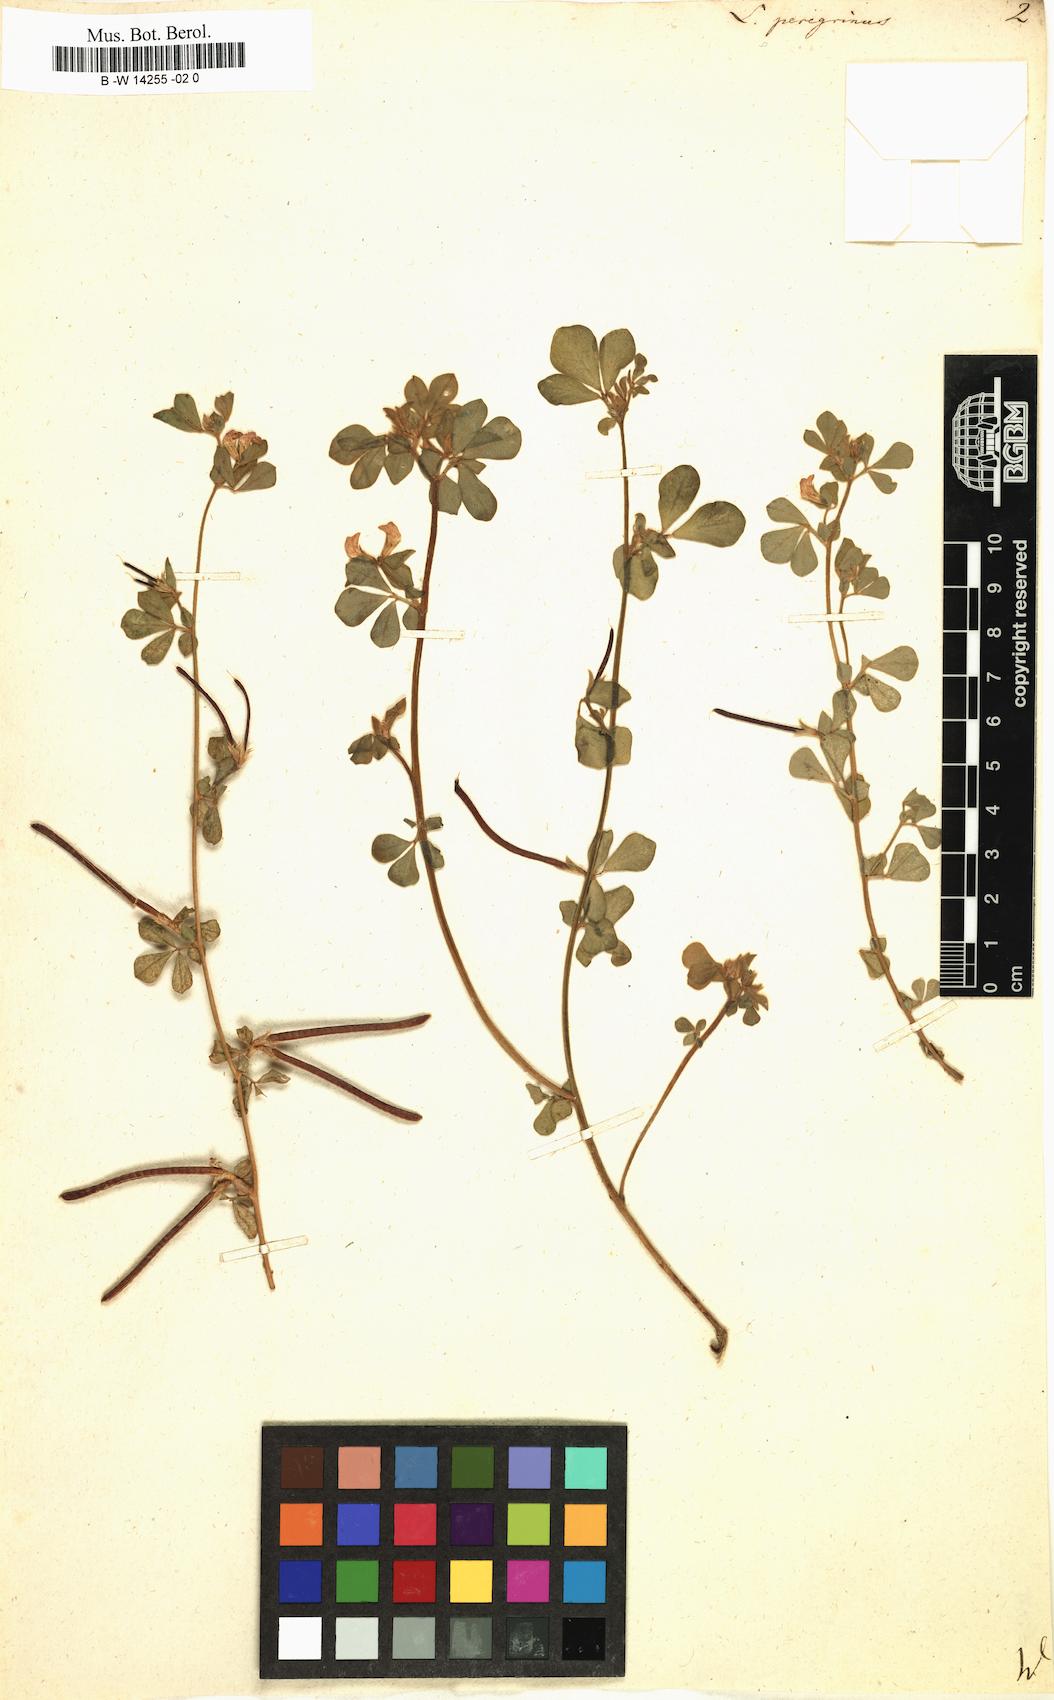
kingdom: Plantae
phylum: Tracheophyta
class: Magnoliopsida
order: Fabales
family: Fabaceae
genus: Lotus
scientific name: Lotus peregrinus
